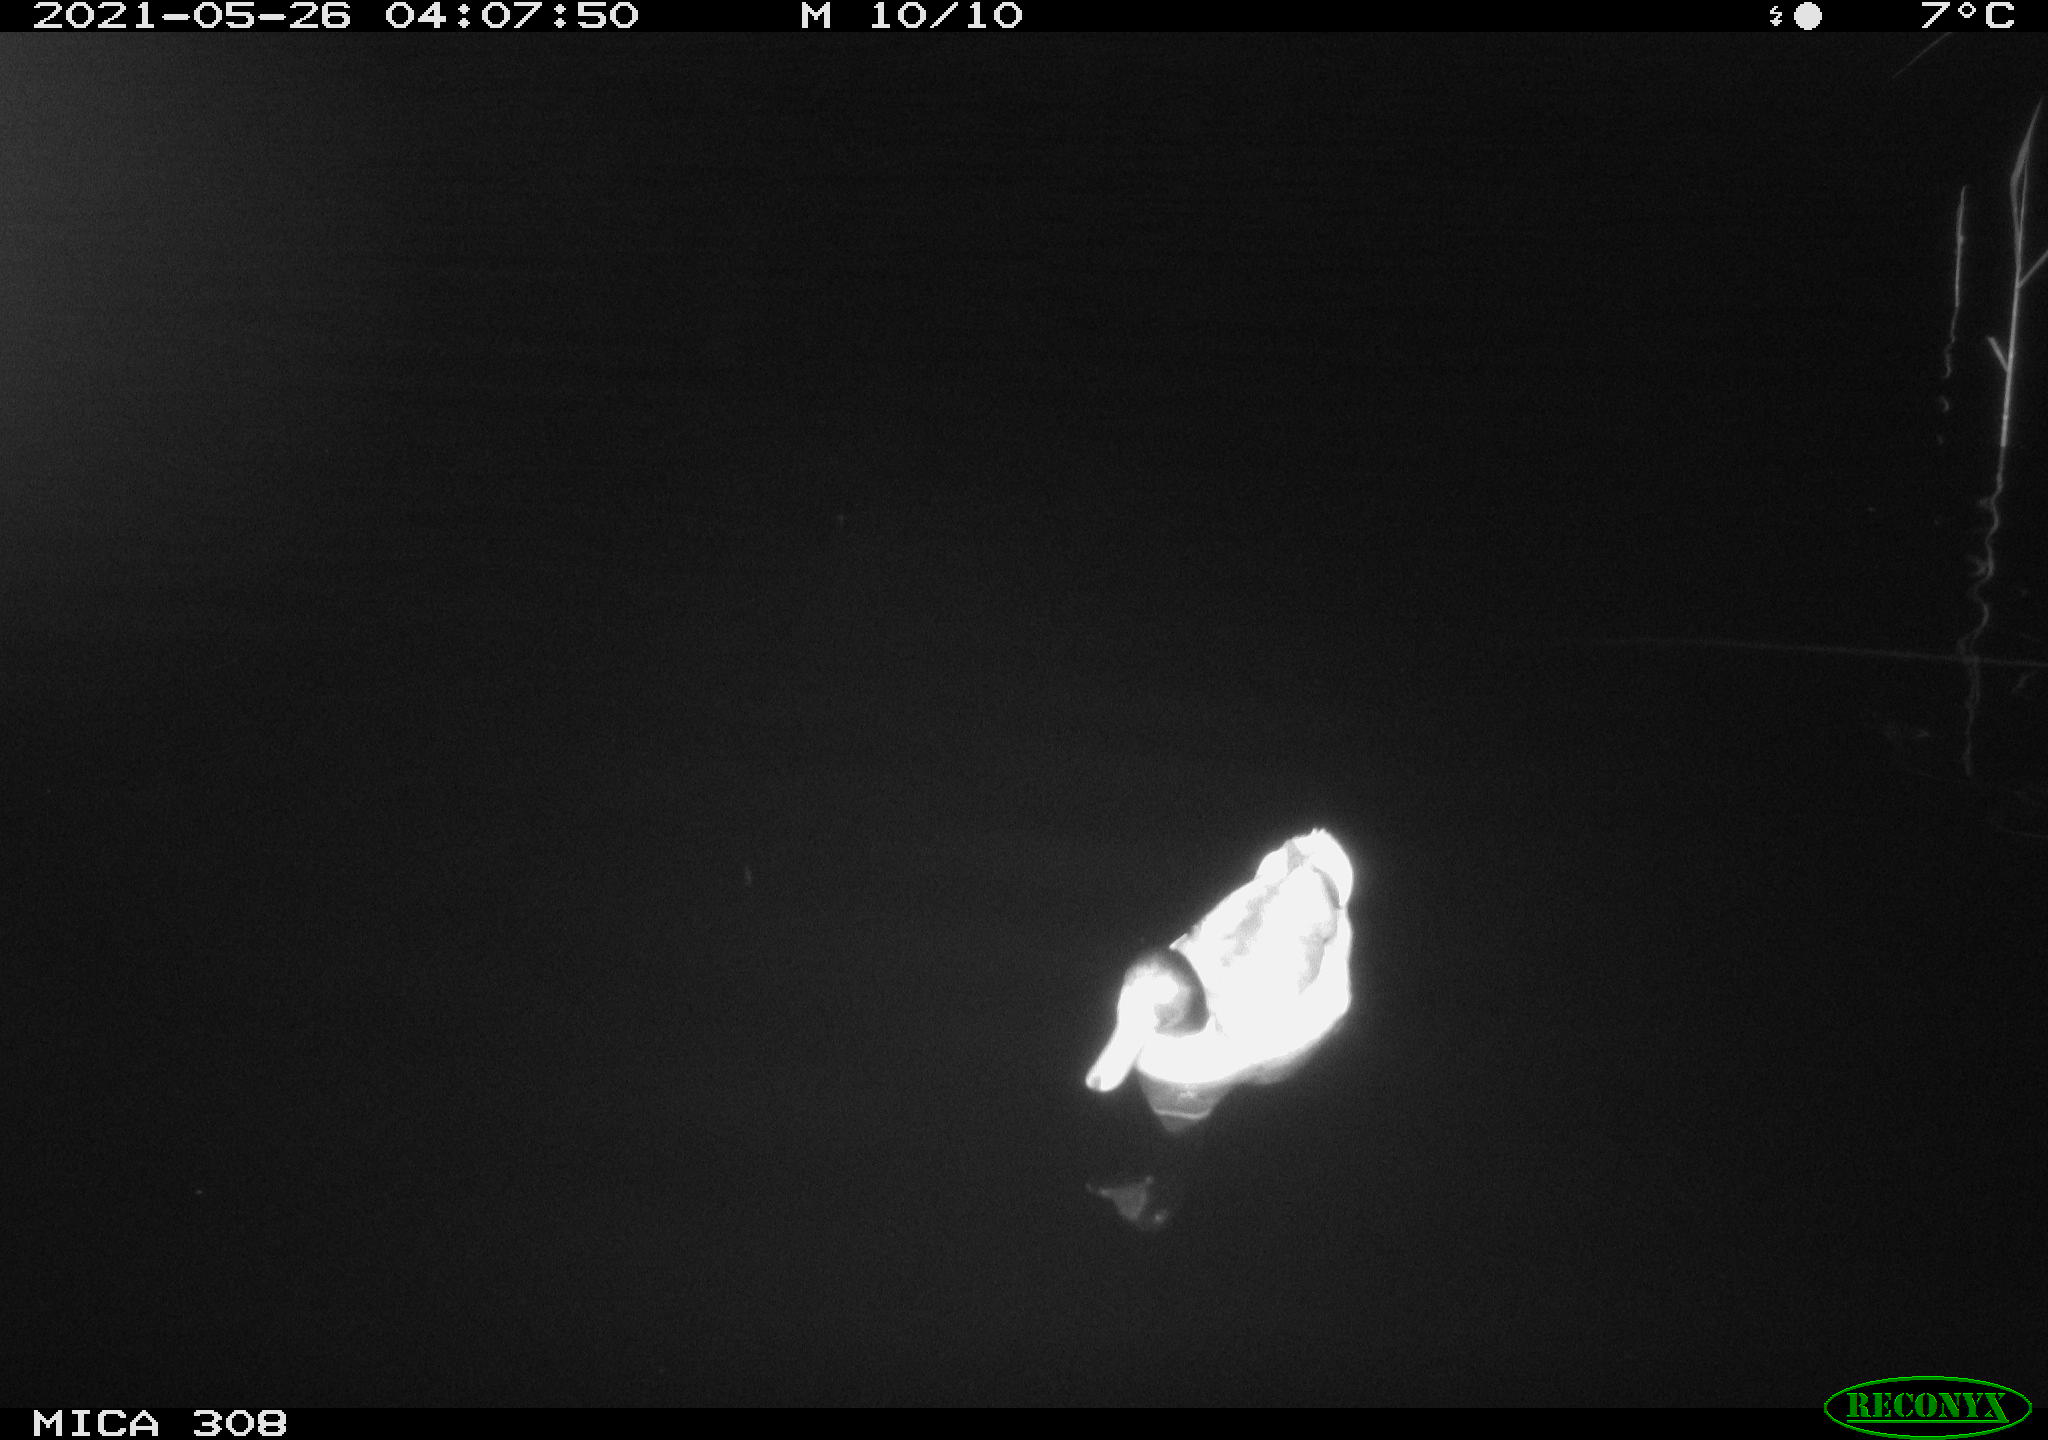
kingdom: Animalia
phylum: Chordata
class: Aves
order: Anseriformes
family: Anatidae
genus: Anas
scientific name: Anas platyrhynchos
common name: Mallard
